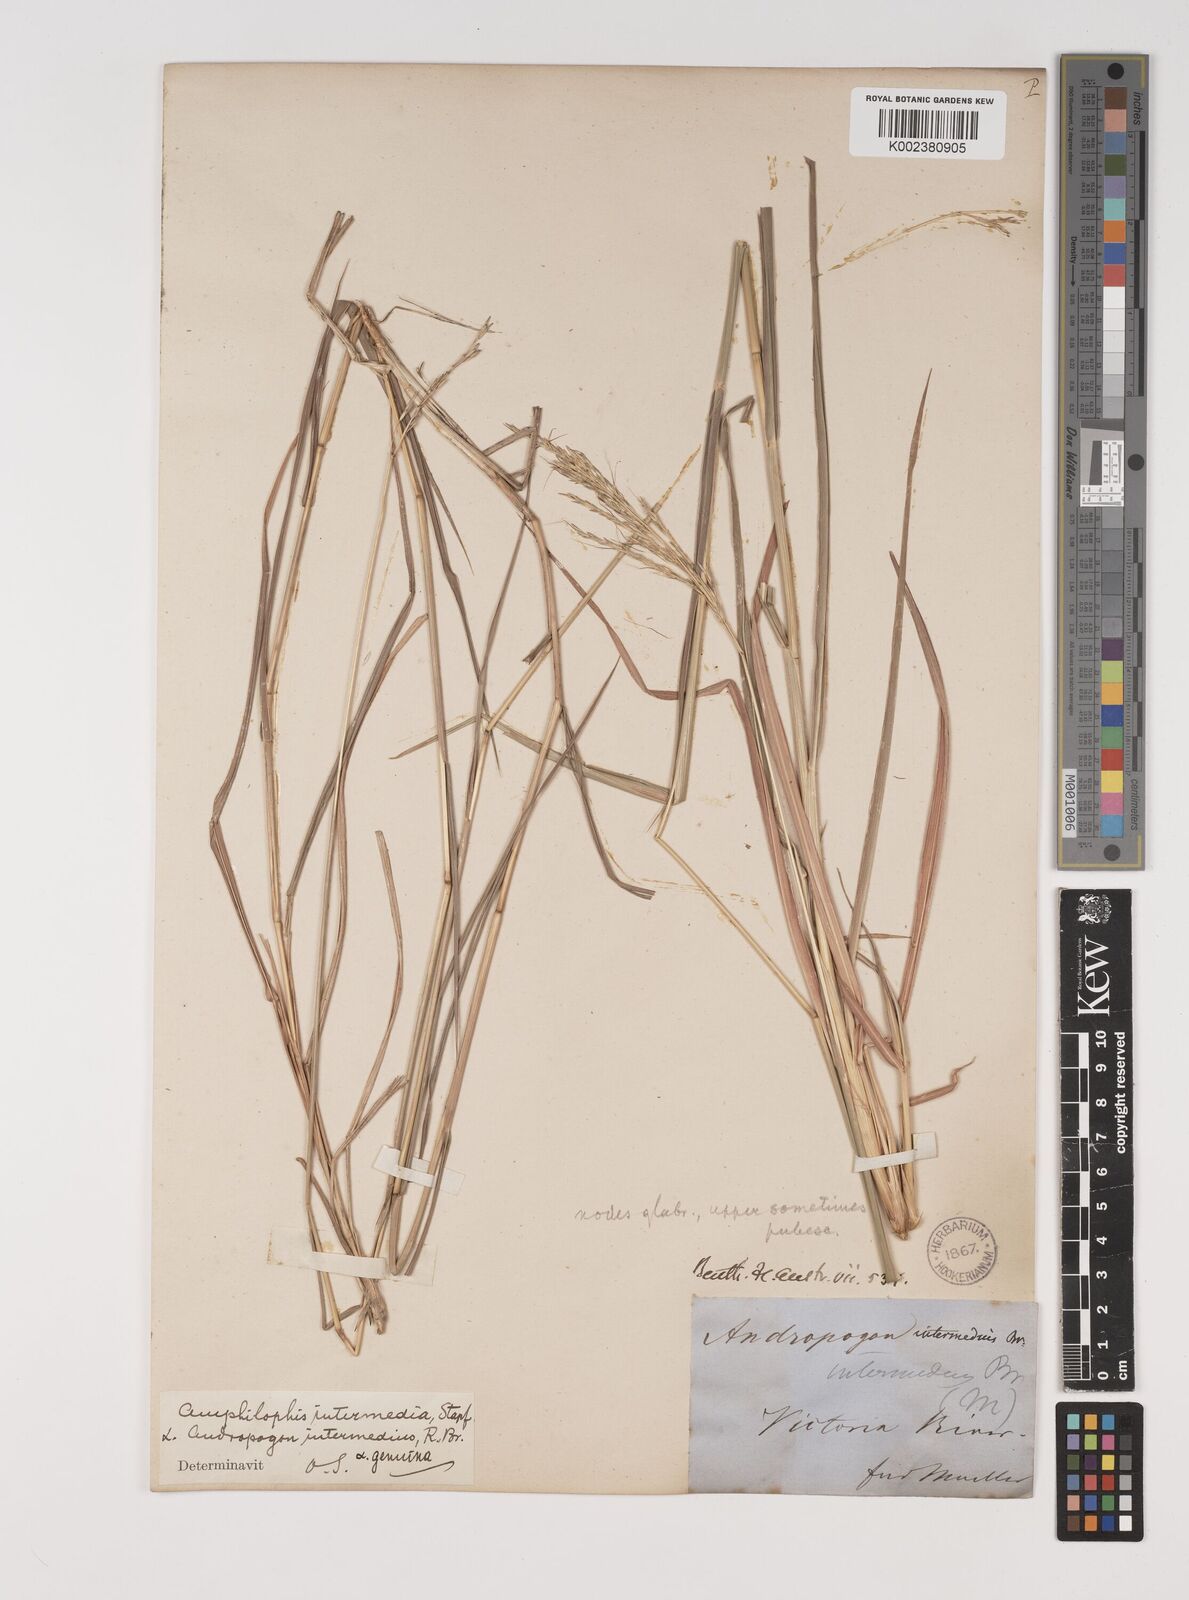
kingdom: Plantae
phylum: Tracheophyta
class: Liliopsida
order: Poales
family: Poaceae
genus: Bothriochloa
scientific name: Bothriochloa bladhii
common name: Caucasian bluestem
